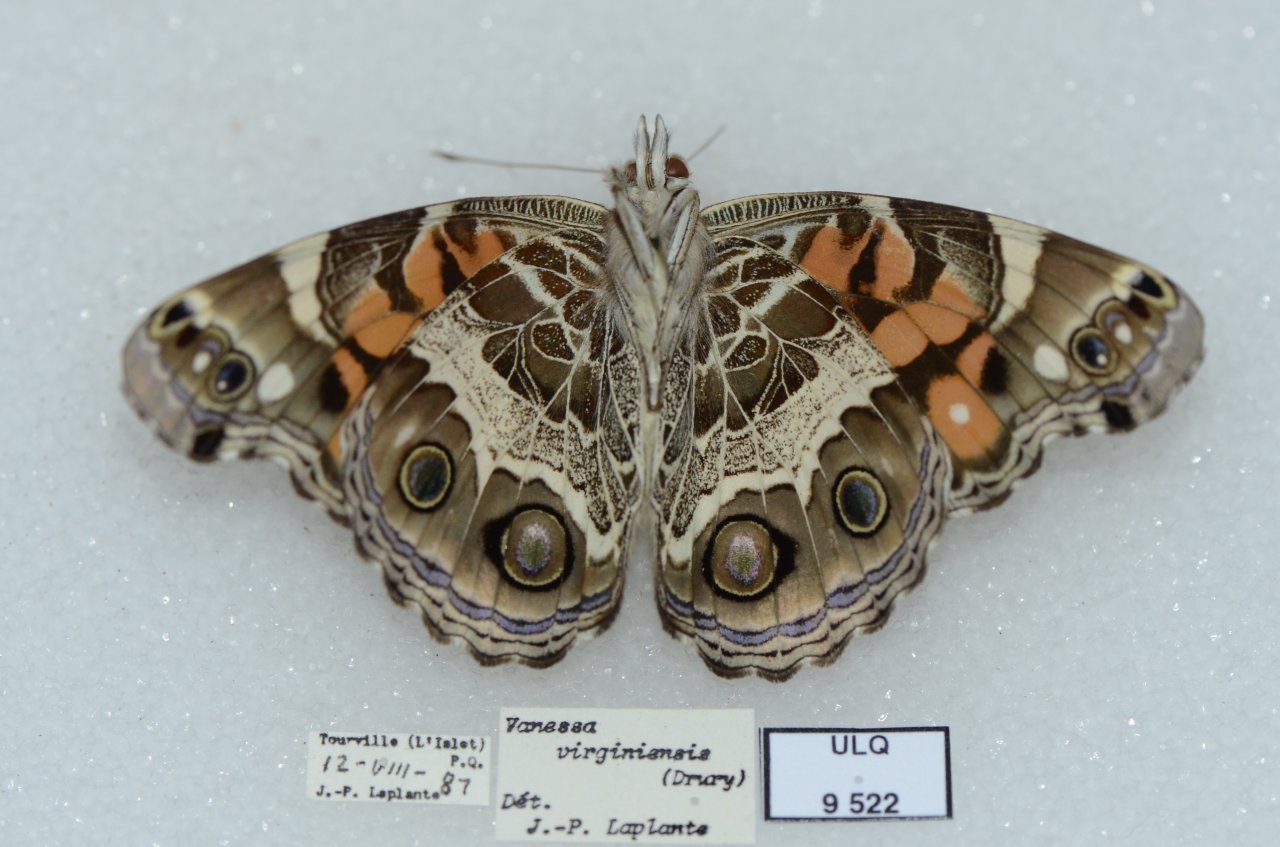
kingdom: Animalia
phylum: Arthropoda
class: Insecta
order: Lepidoptera
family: Nymphalidae
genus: Vanessa
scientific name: Vanessa virginiensis
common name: American Lady
